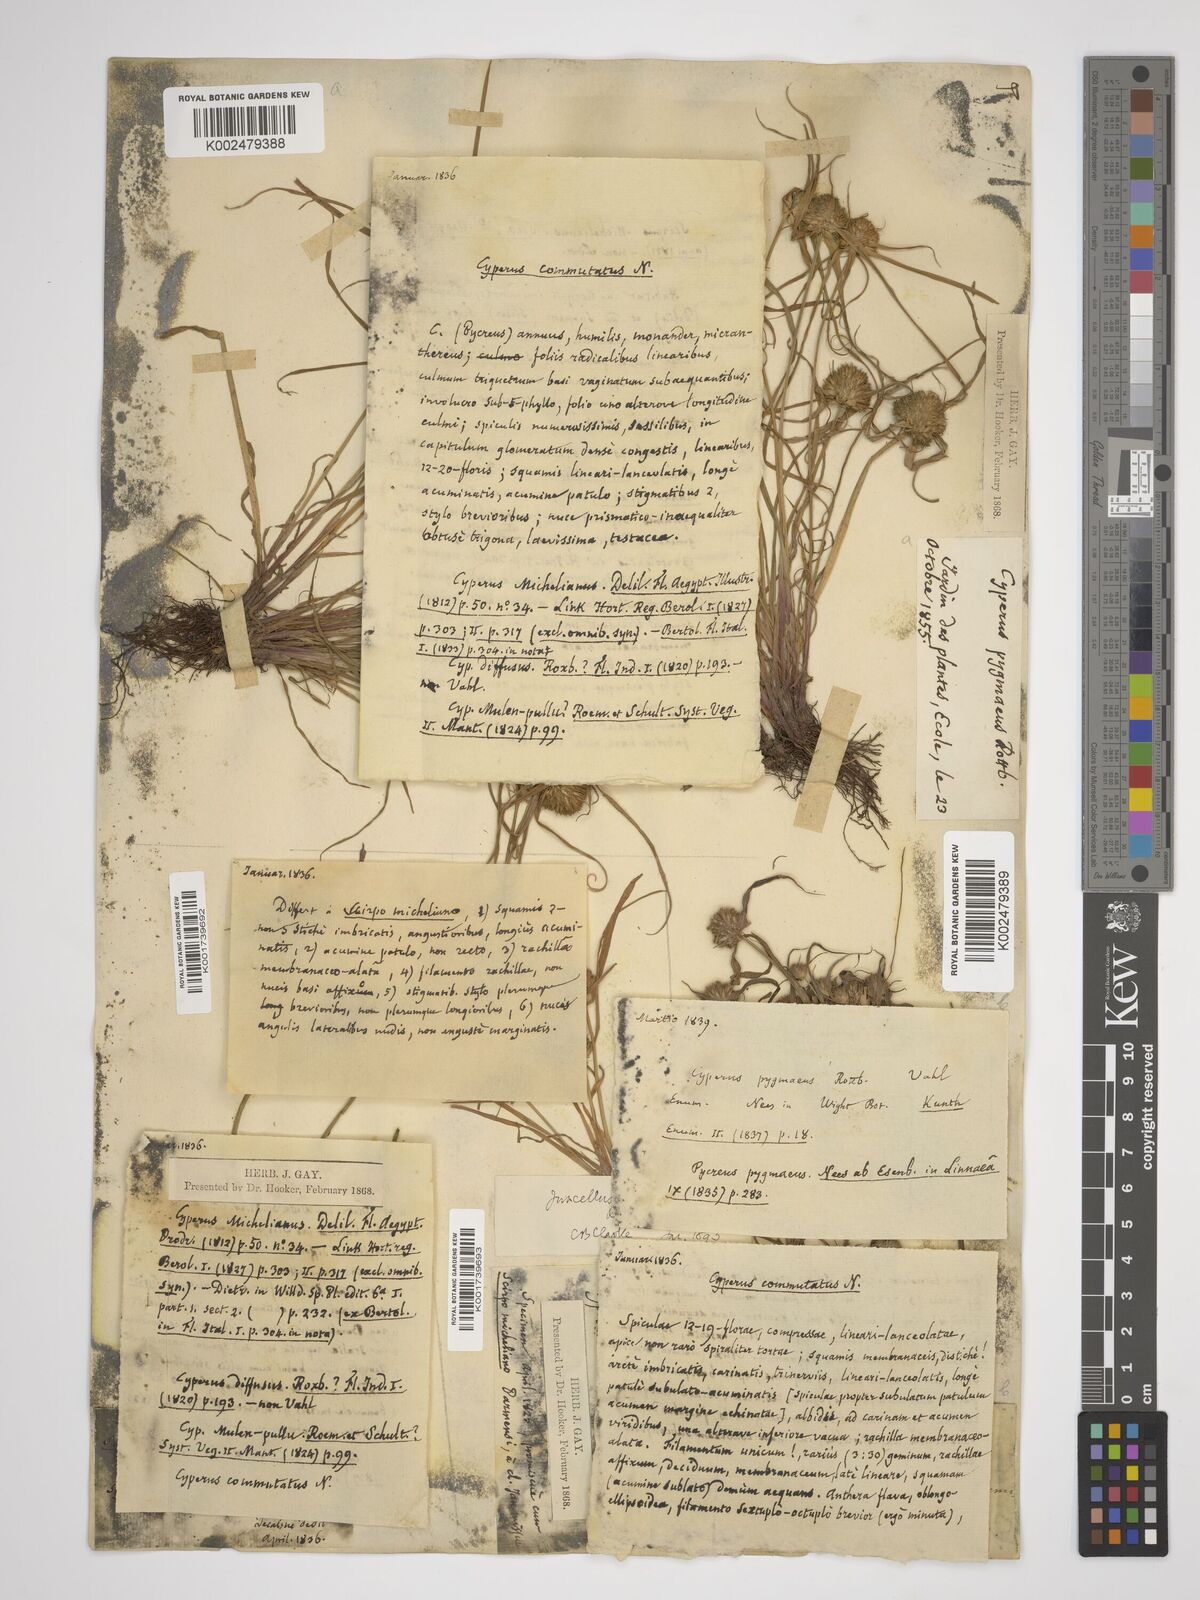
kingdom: Plantae
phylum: Tracheophyta
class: Liliopsida
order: Poales
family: Cyperaceae
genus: Cyperus
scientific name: Cyperus michelianus
